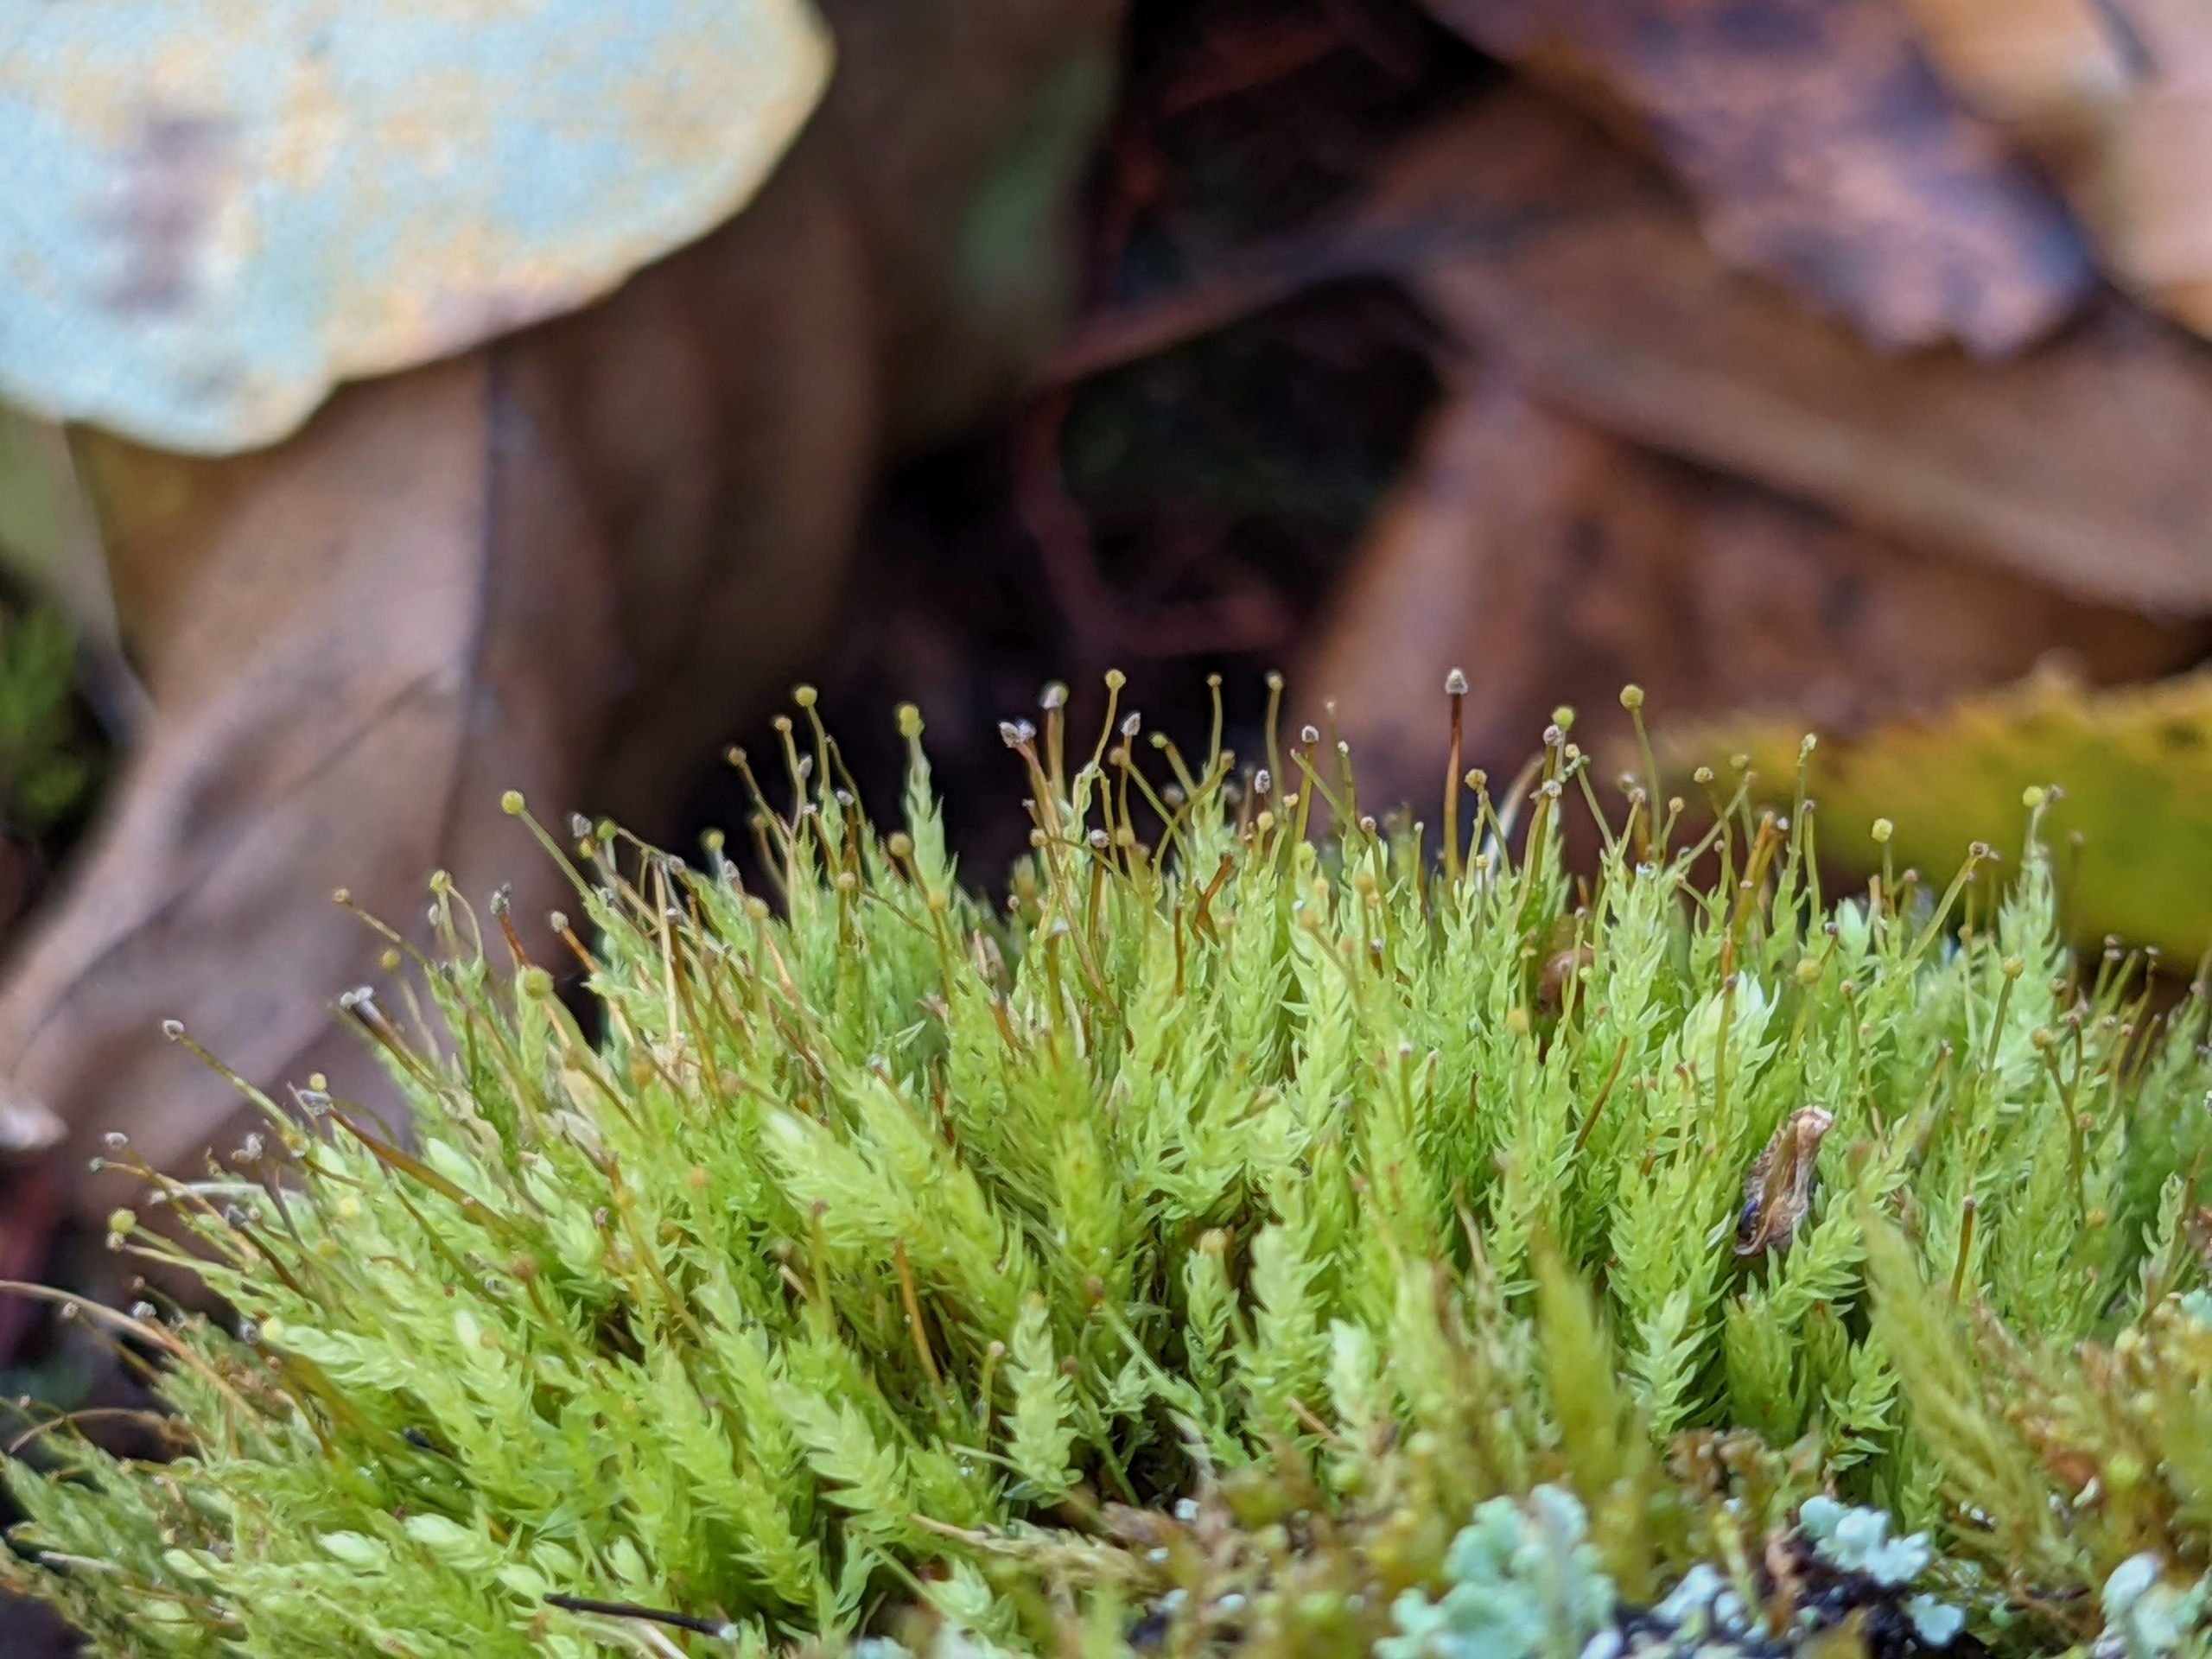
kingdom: Plantae
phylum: Bryophyta
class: Bryopsida
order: Aulacomniales
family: Aulacomniaceae
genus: Aulacomnium
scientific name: Aulacomnium androgynum
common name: Kugle-filtmos
